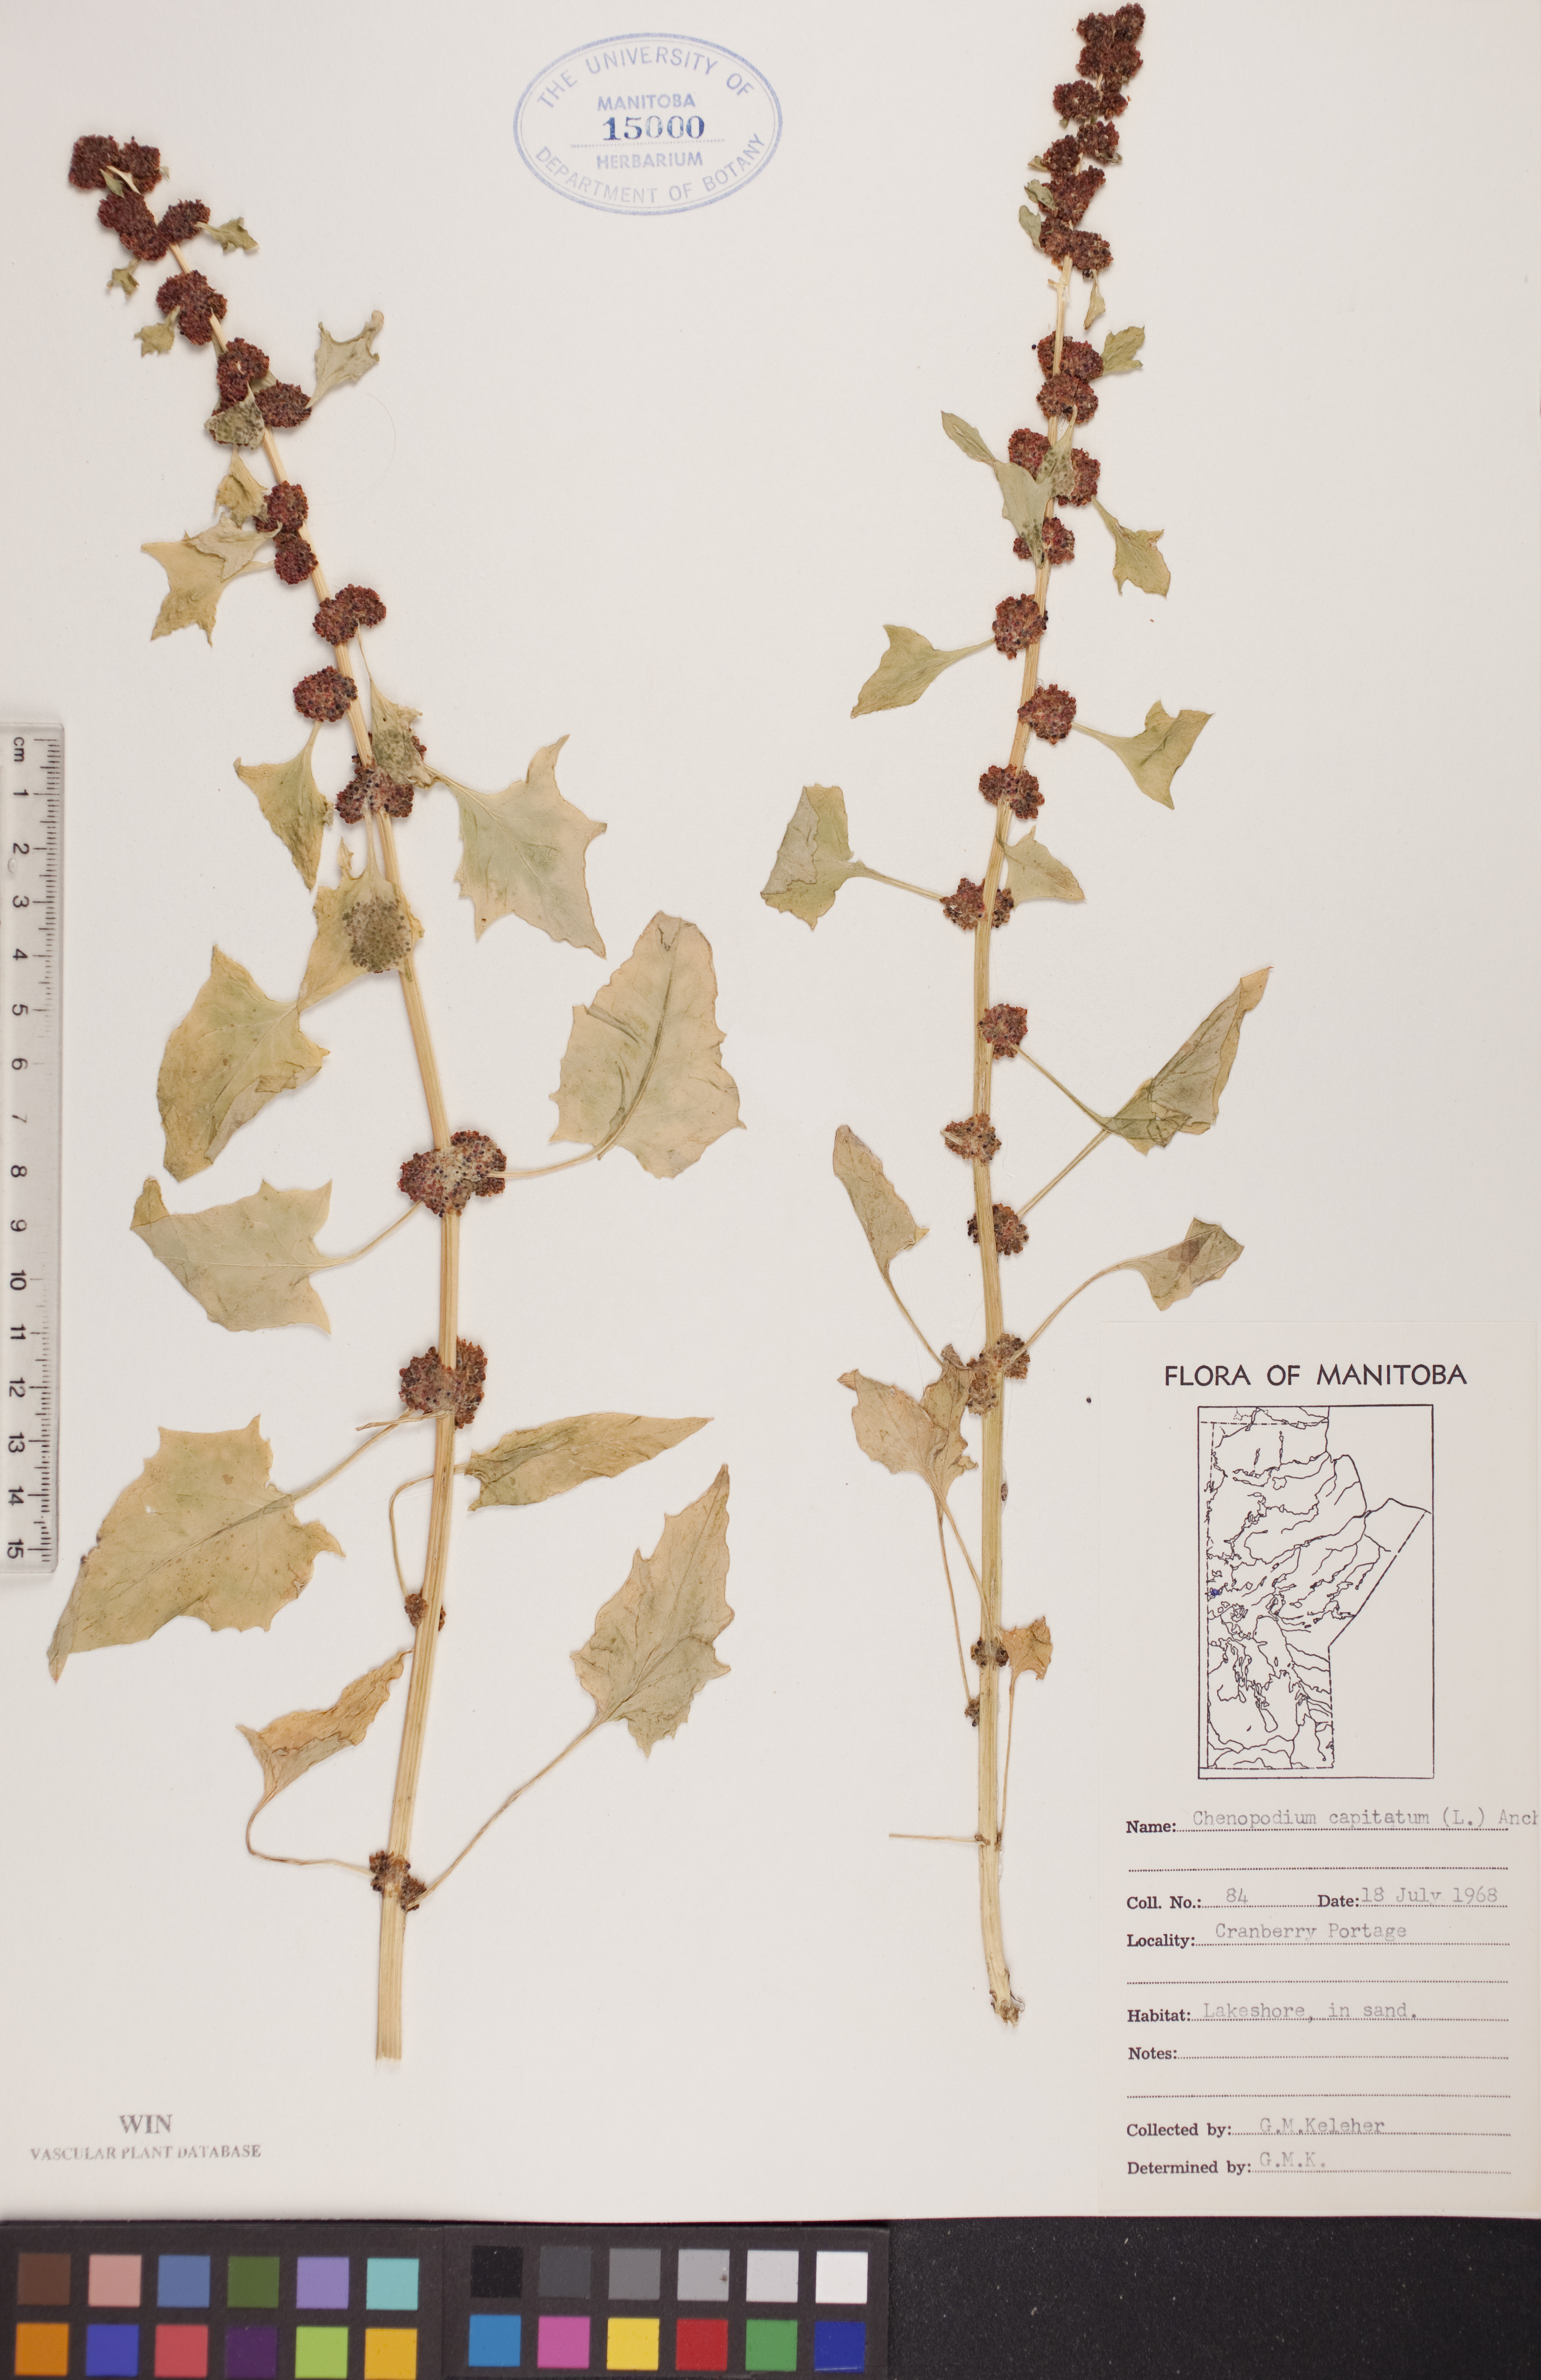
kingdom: Plantae
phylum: Tracheophyta
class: Magnoliopsida
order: Caryophyllales
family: Amaranthaceae
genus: Blitum
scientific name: Blitum capitatum
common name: Strawberry-blight
